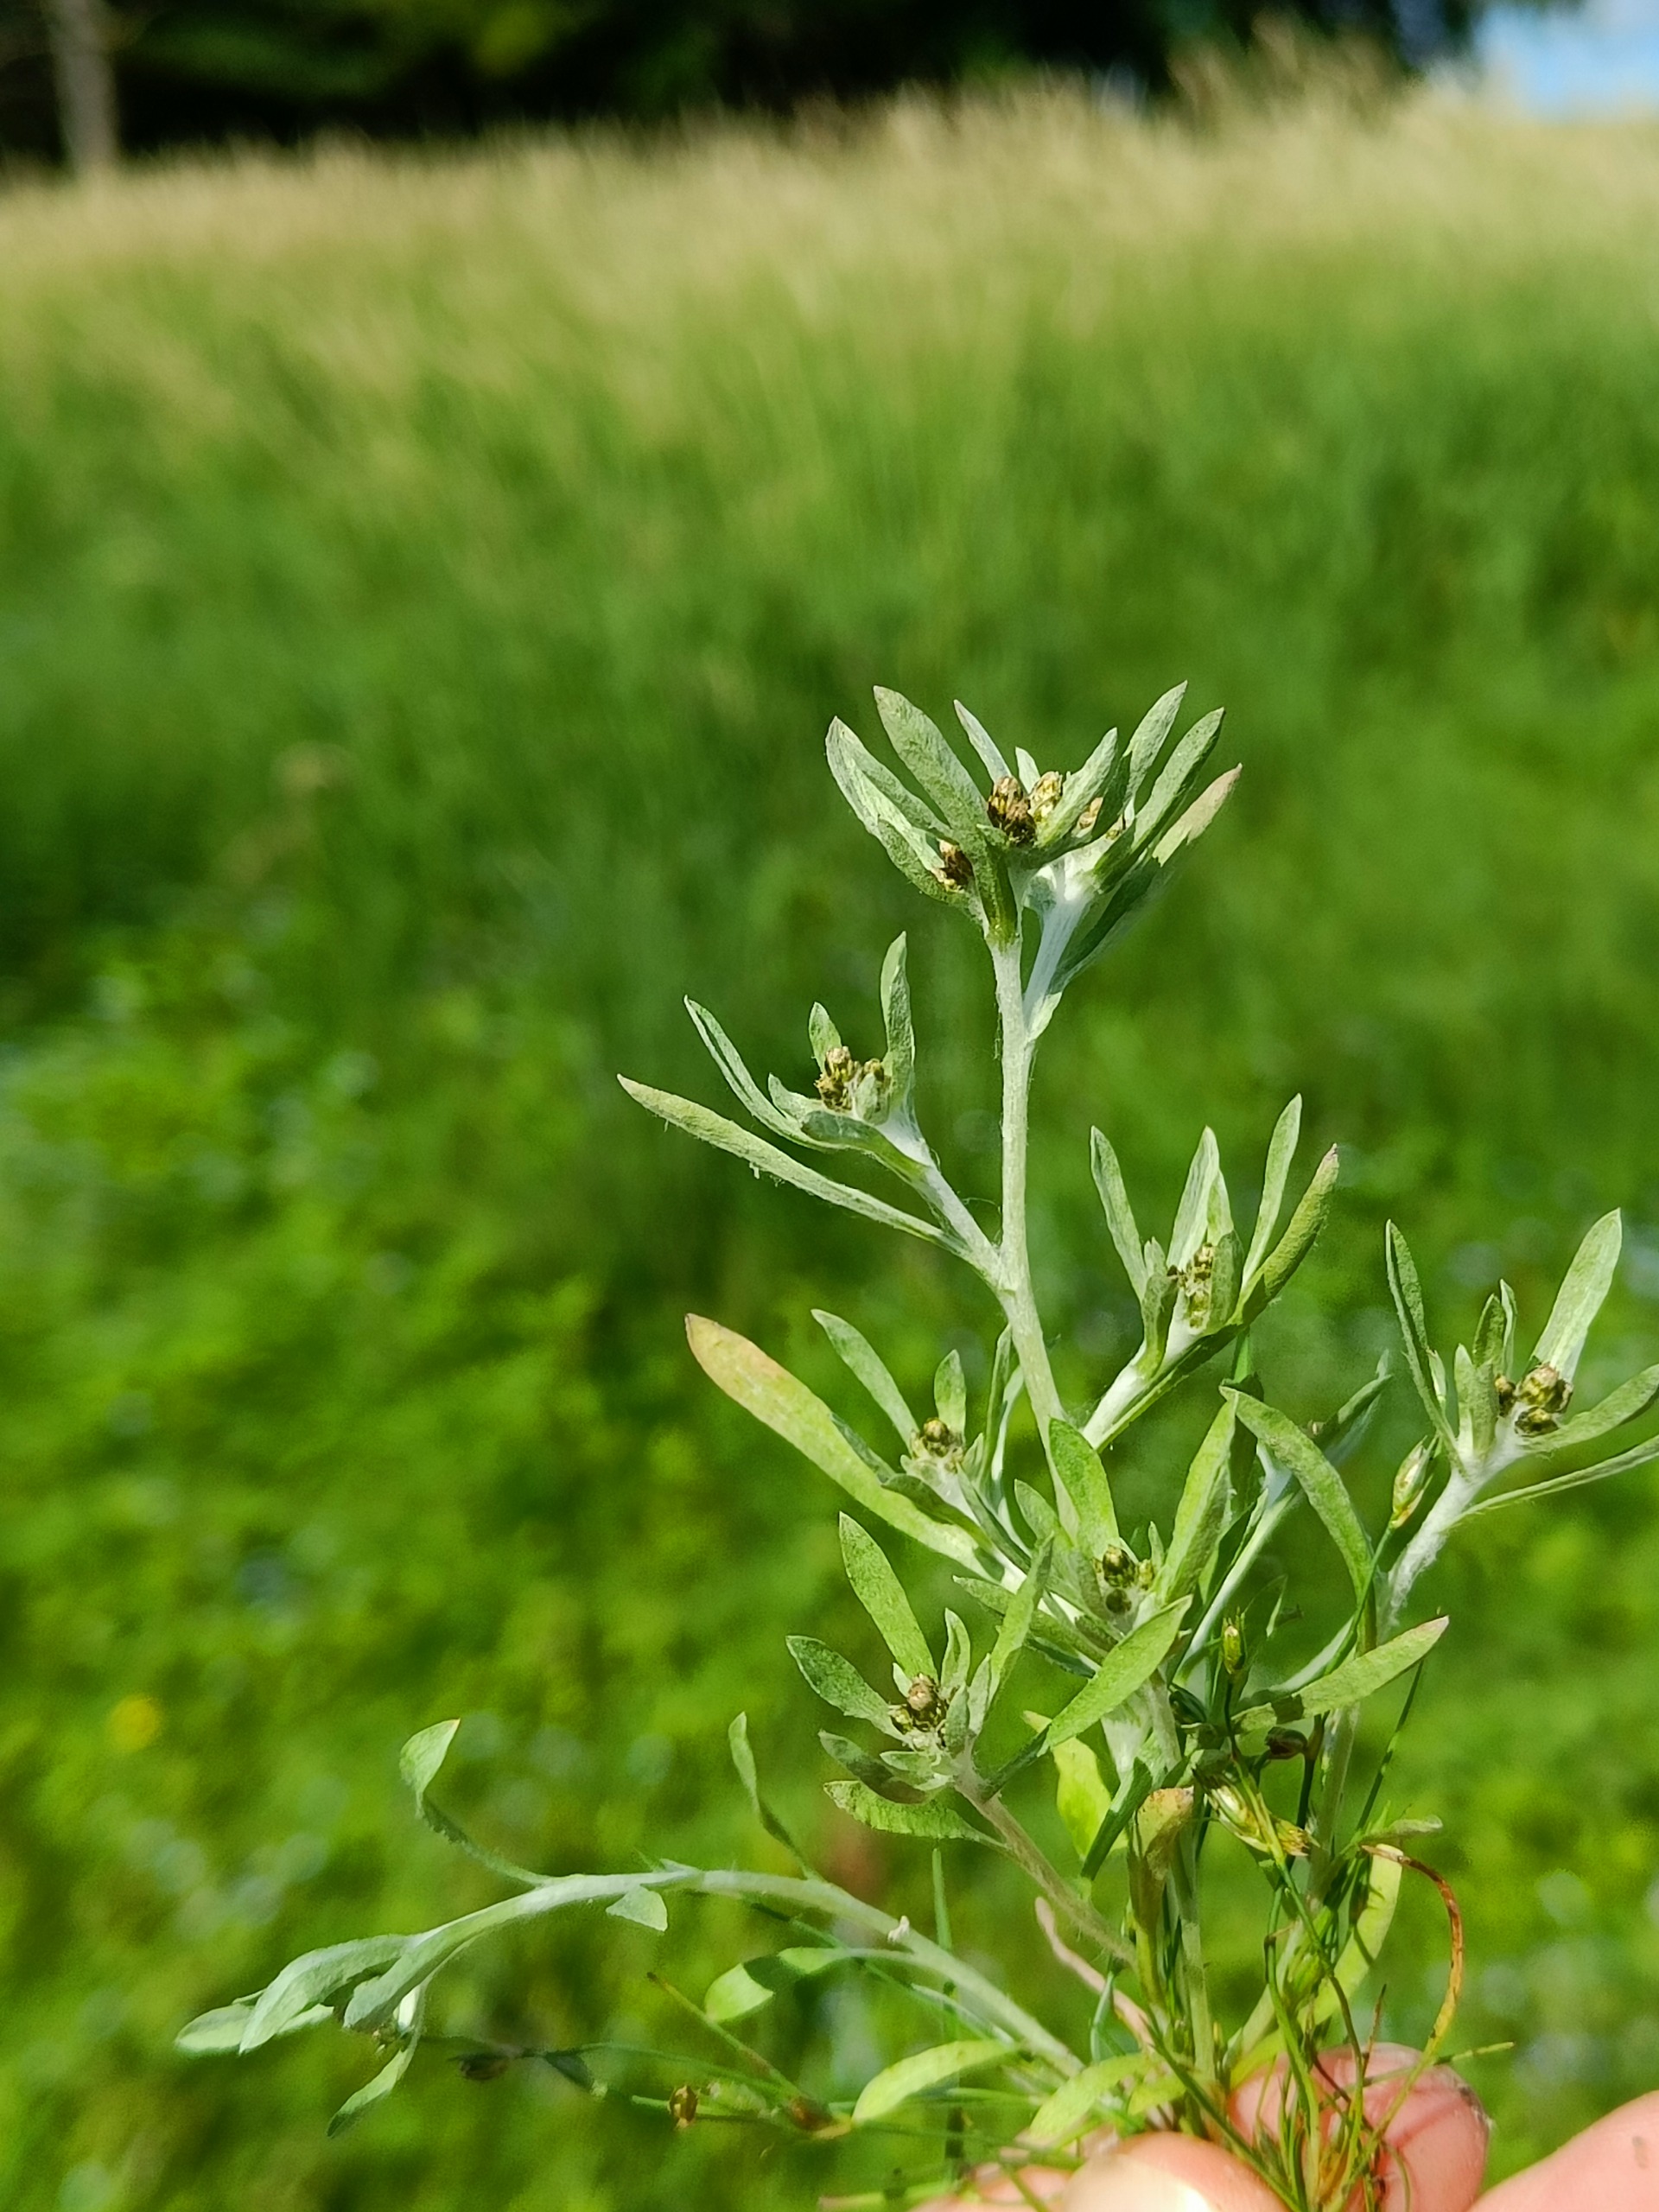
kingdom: Plantae
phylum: Tracheophyta
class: Magnoliopsida
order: Asterales
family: Asteraceae
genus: Gnaphalium
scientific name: Gnaphalium uliginosum
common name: Sump-evighedsblomst
